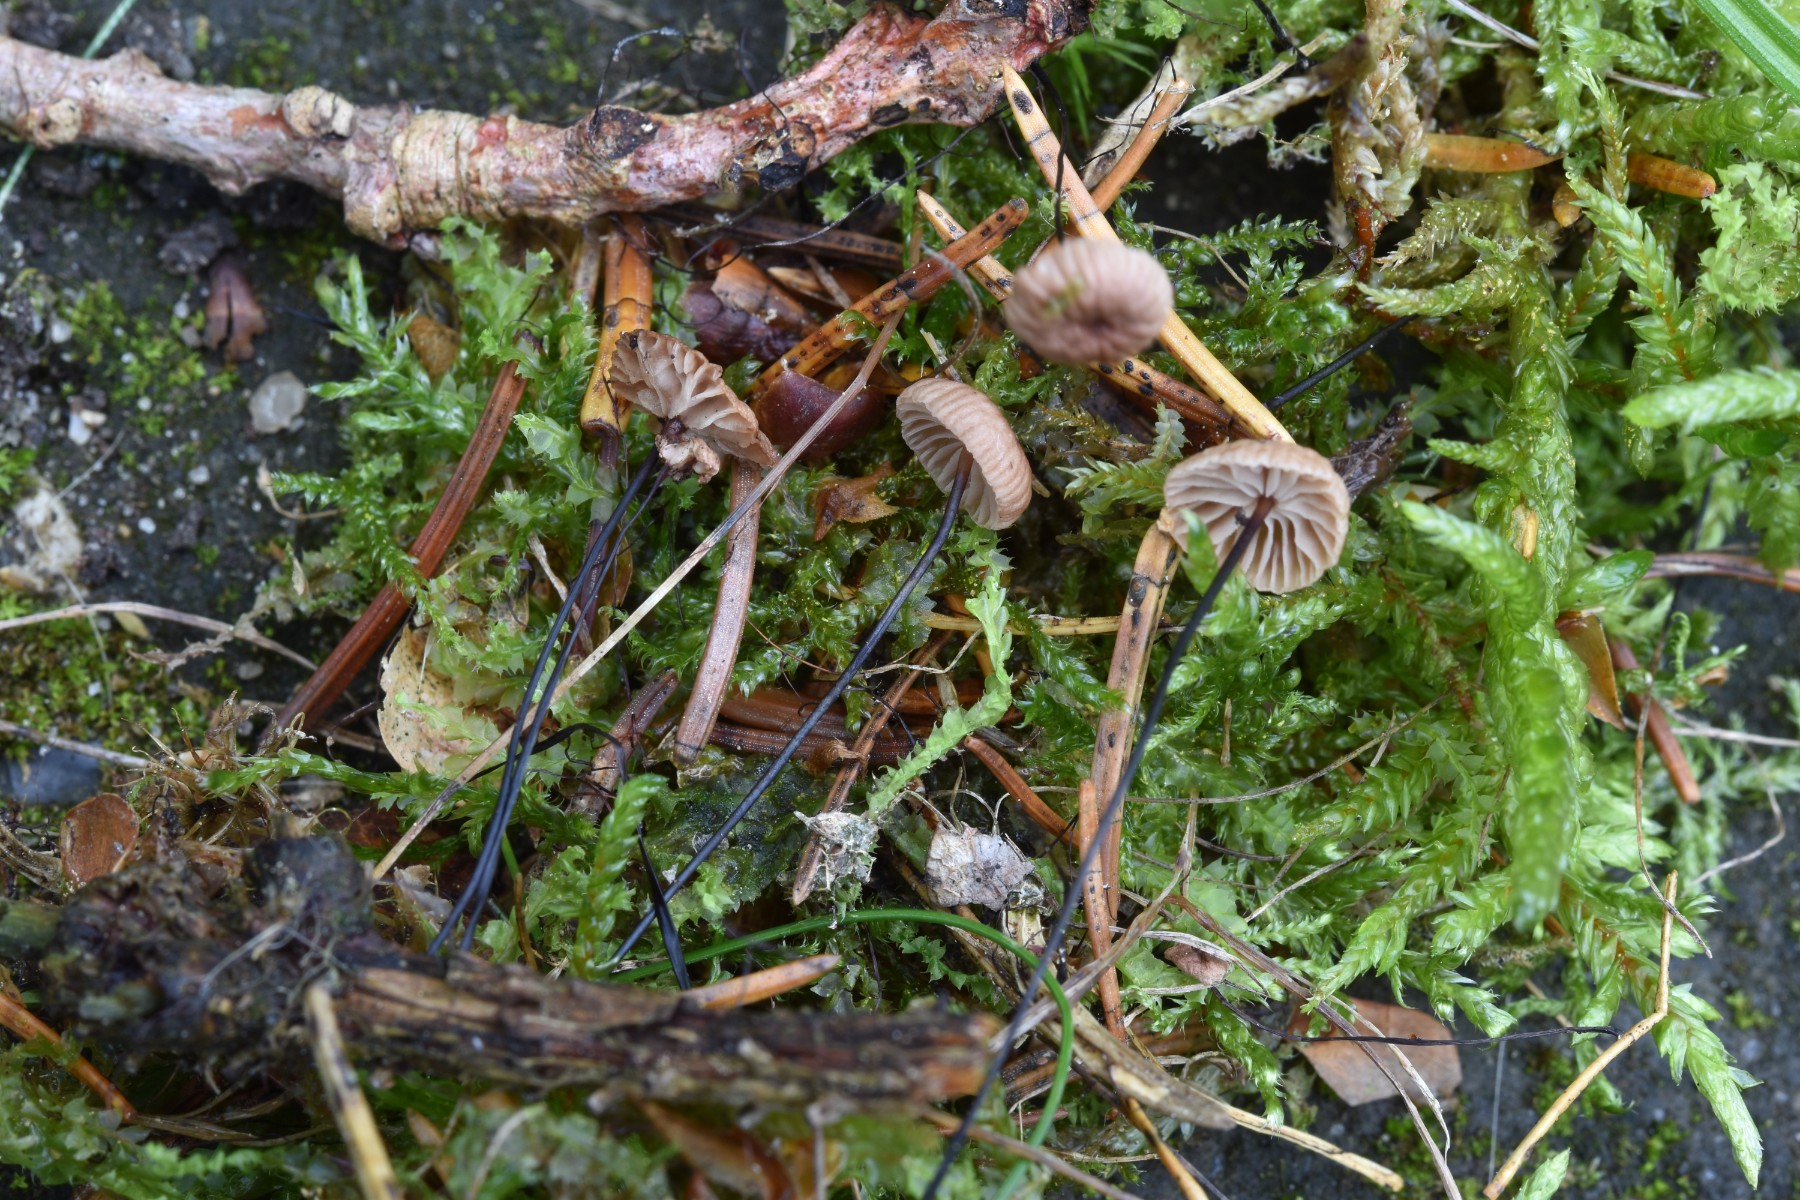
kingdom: Fungi
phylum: Basidiomycota
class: Agaricomycetes
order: Agaricales
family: Omphalotaceae
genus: Gymnopus
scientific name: Gymnopus androsaceus
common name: trådstokket fladhat
